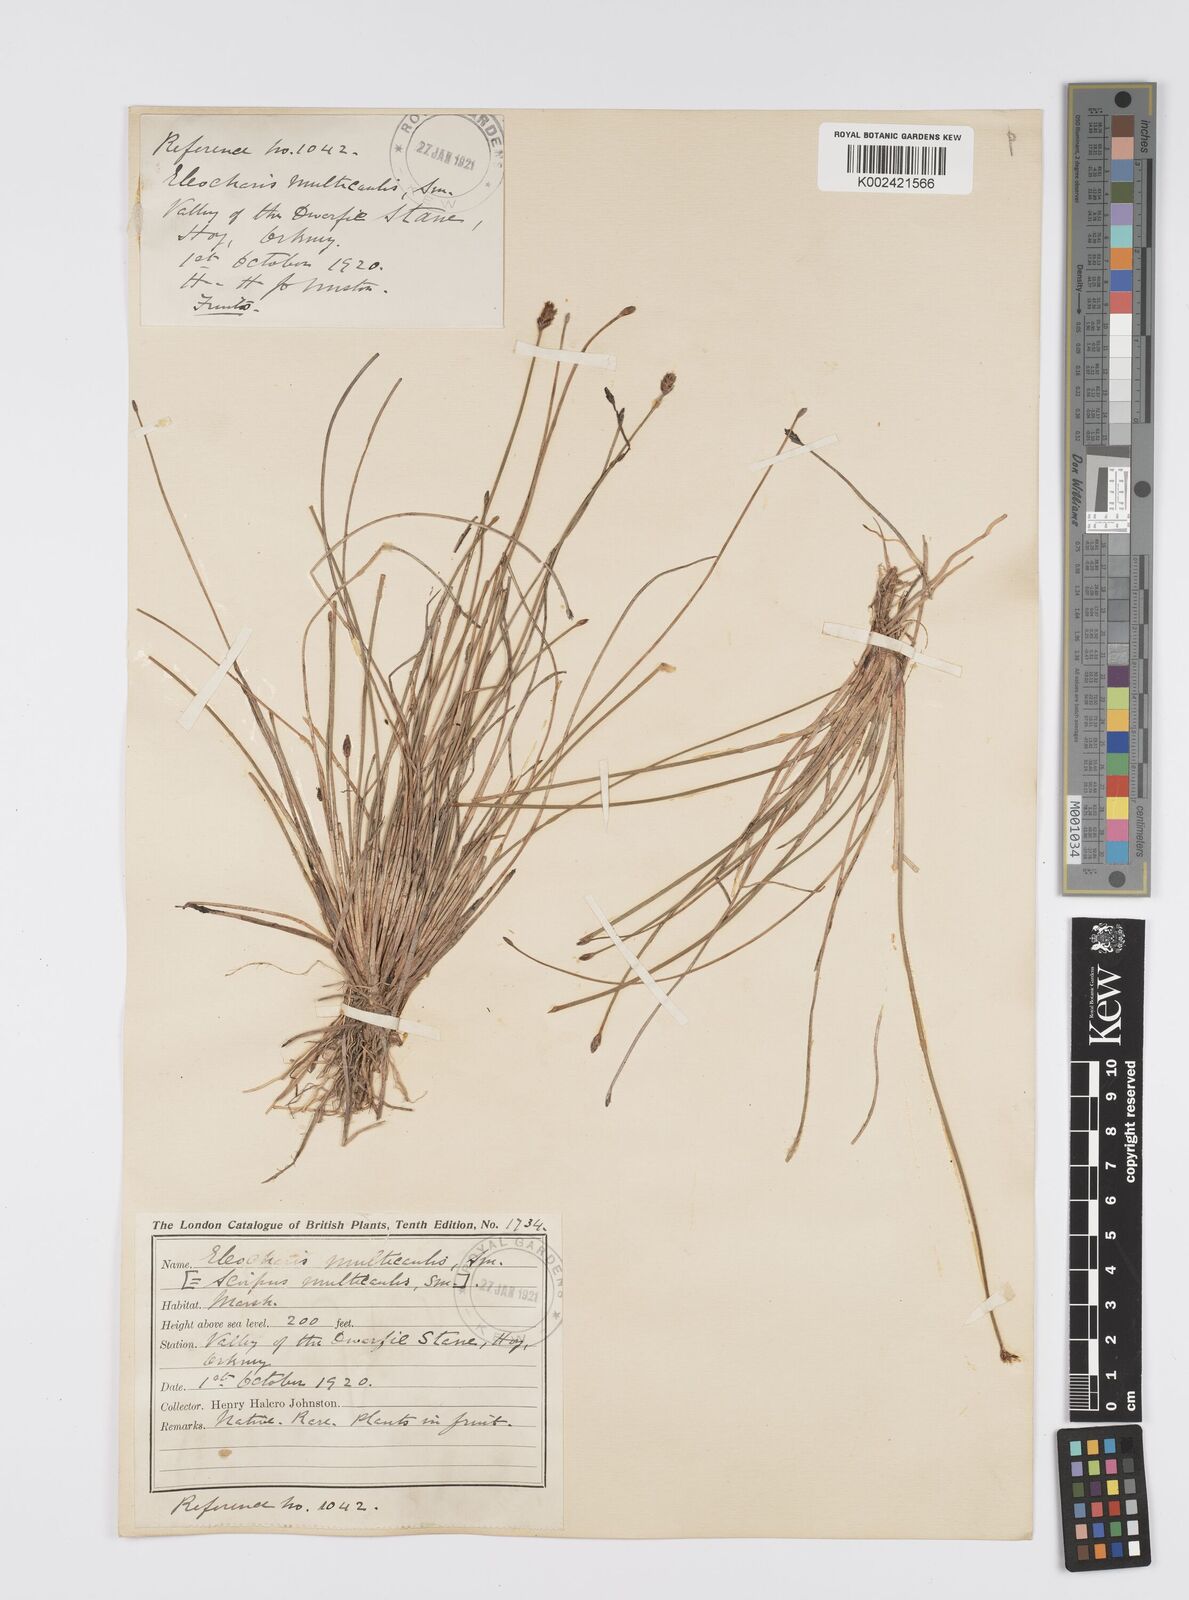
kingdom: Plantae
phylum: Tracheophyta
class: Liliopsida
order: Poales
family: Cyperaceae
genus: Eleocharis
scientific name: Eleocharis multicaulis
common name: Many-stalked spike-rush
